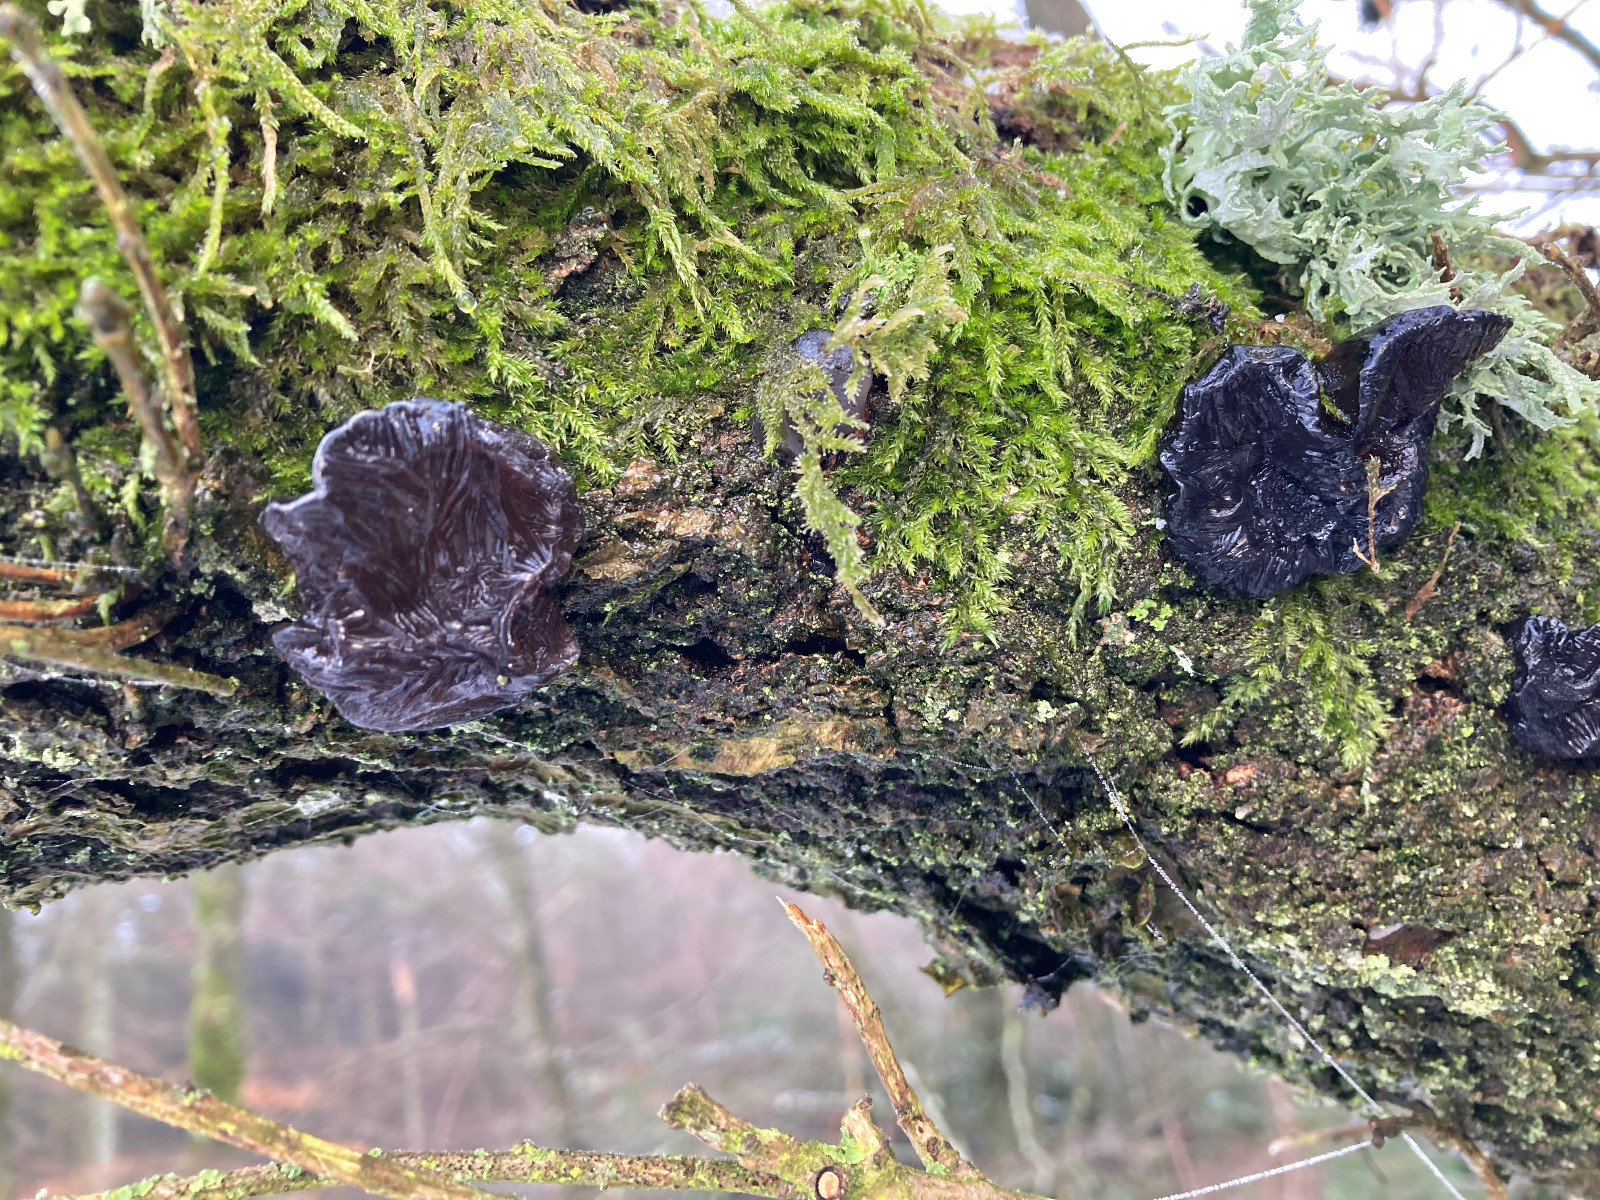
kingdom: Fungi
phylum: Basidiomycota
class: Agaricomycetes
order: Auriculariales
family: Auriculariaceae
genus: Exidia
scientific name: Exidia glandulosa
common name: ege-bævretop
